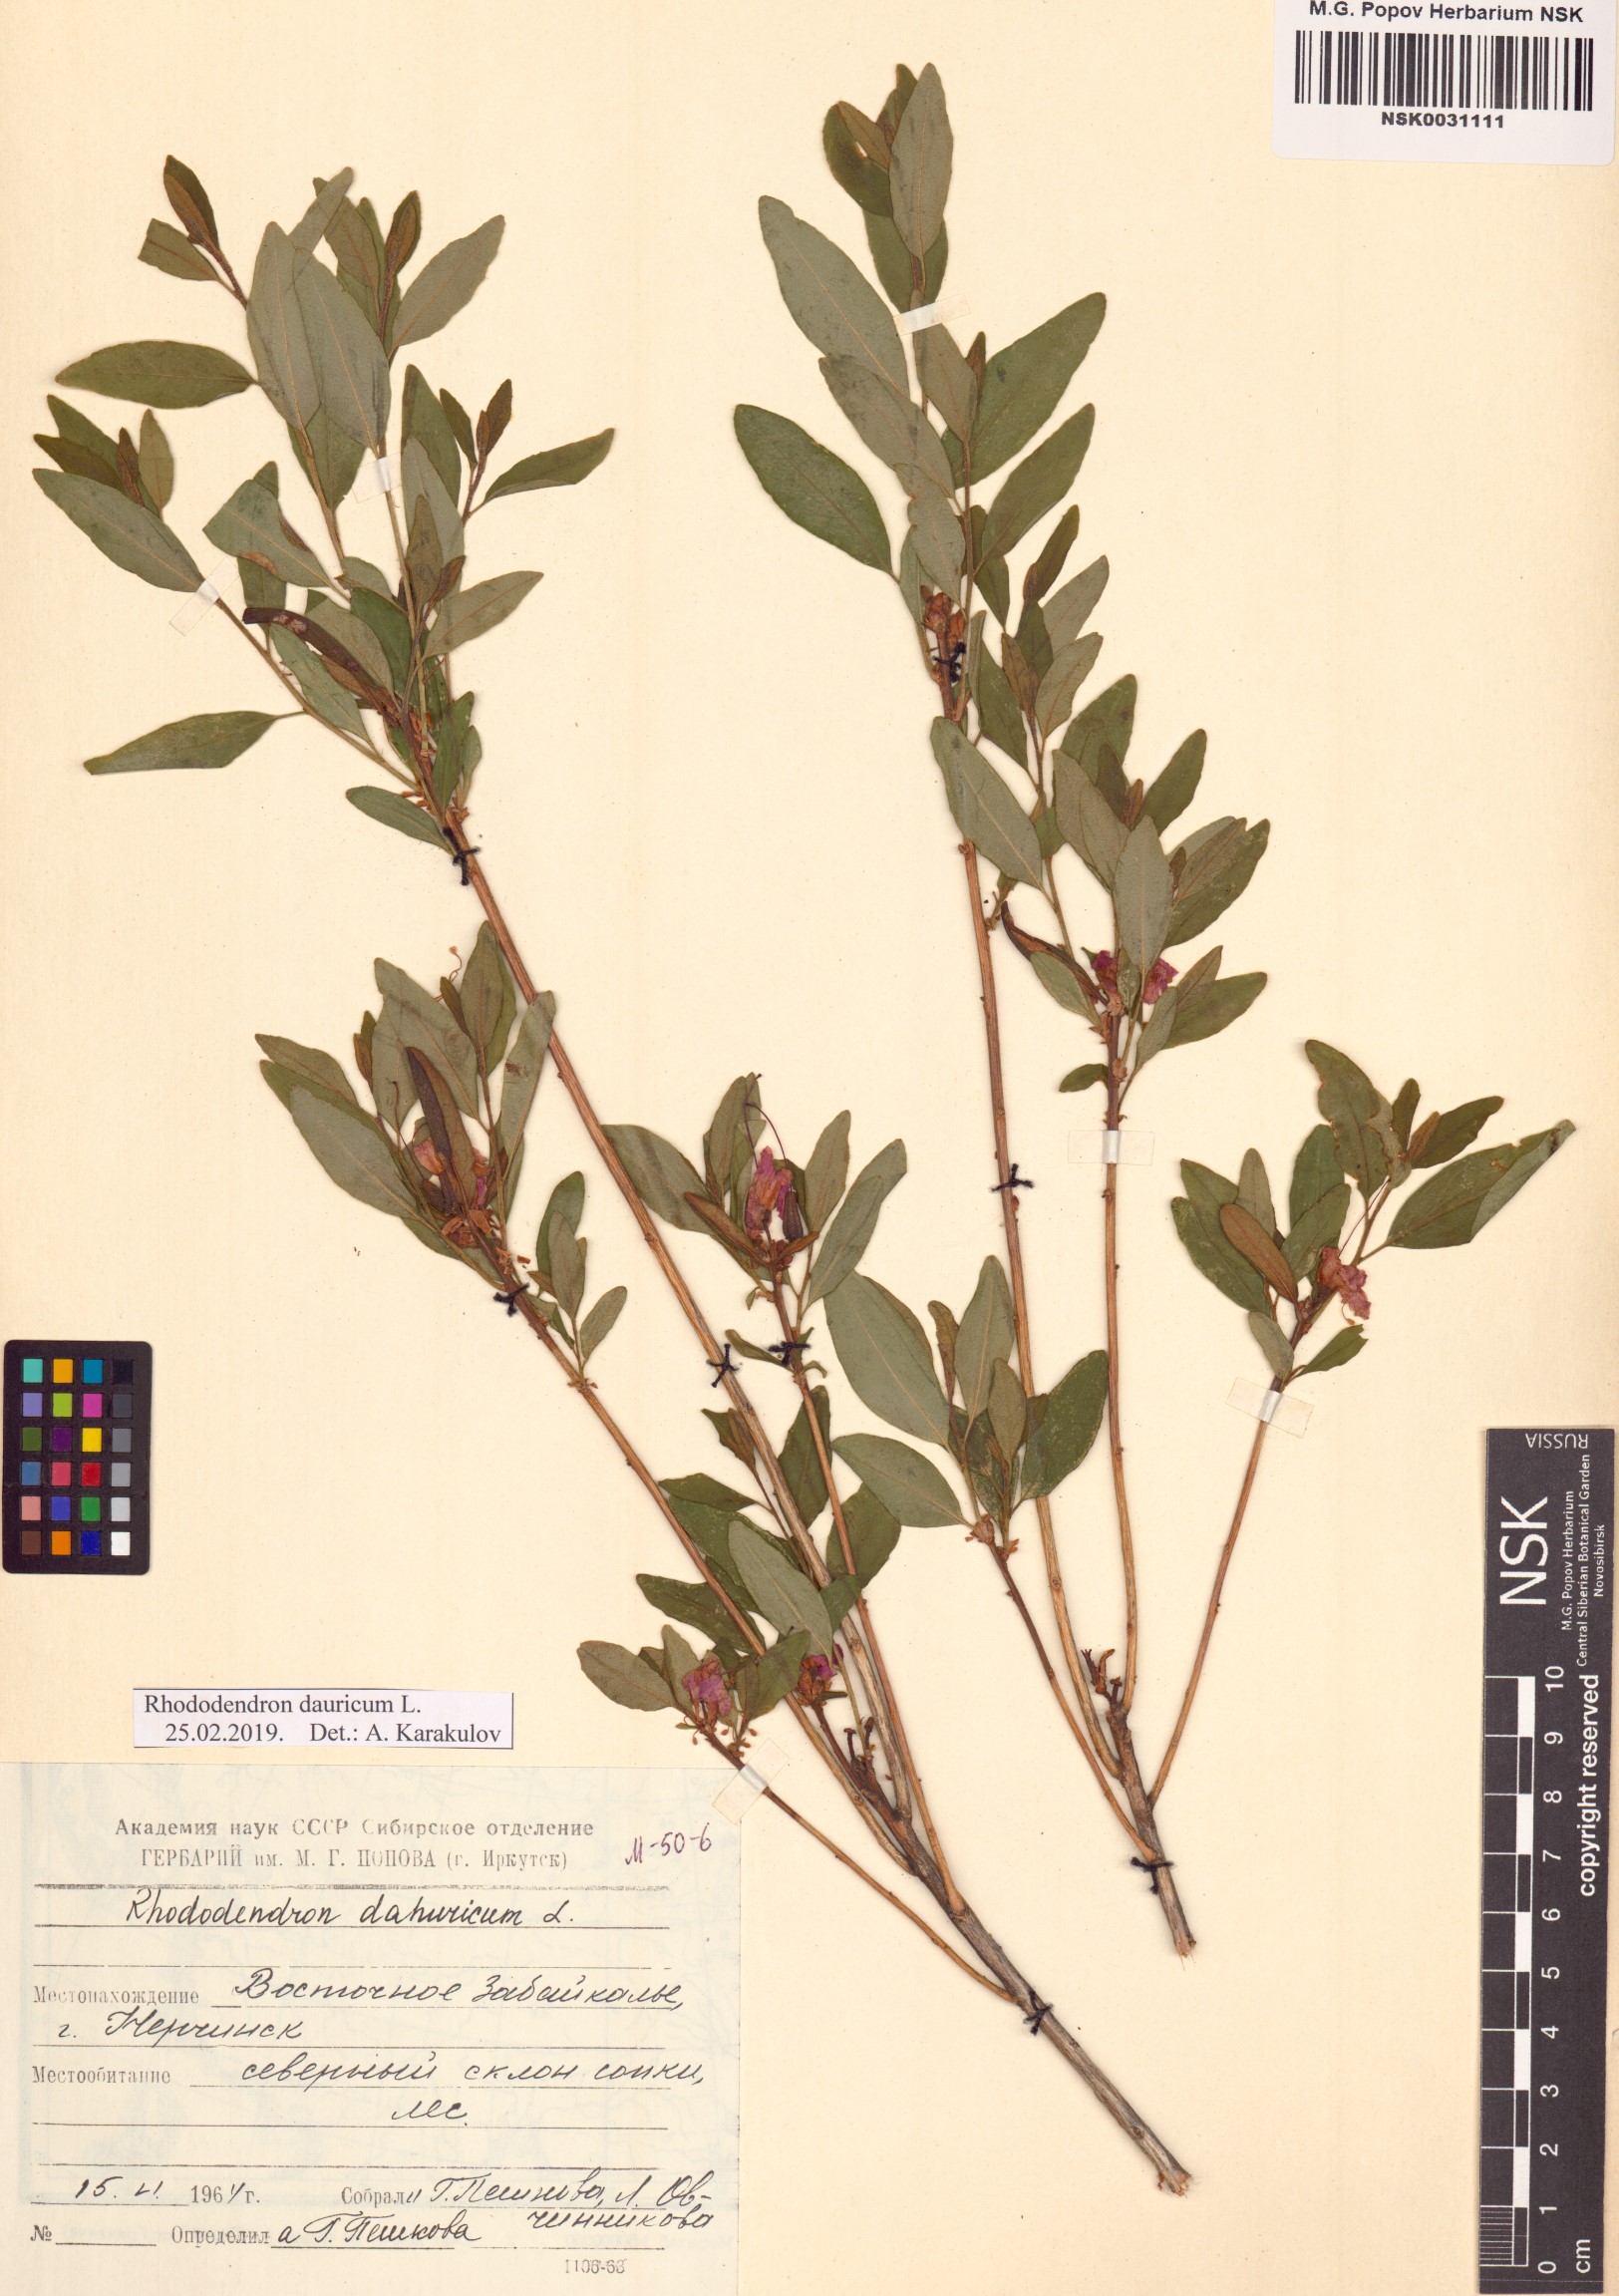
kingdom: Plantae
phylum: Tracheophyta
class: Magnoliopsida
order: Ericales
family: Ericaceae
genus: Rhododendron
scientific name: Rhododendron dauricum
